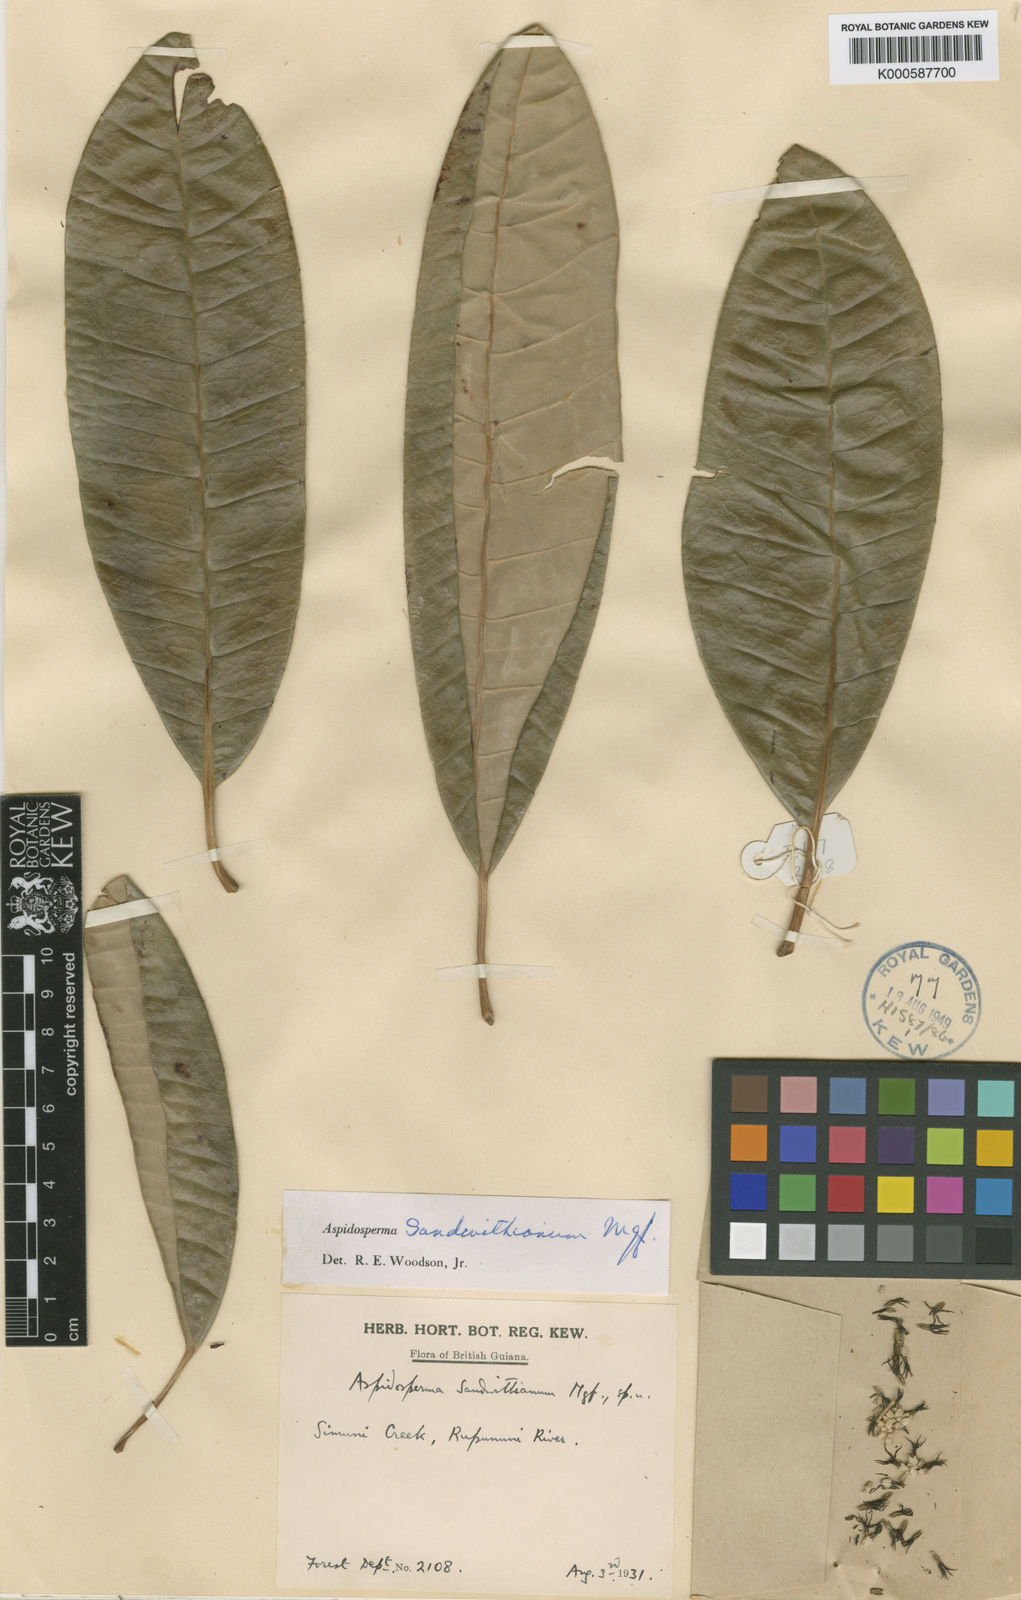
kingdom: Plantae
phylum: Tracheophyta
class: Magnoliopsida
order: Gentianales
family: Apocynaceae
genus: Aspidosperma
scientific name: Aspidosperma sandwithianum
